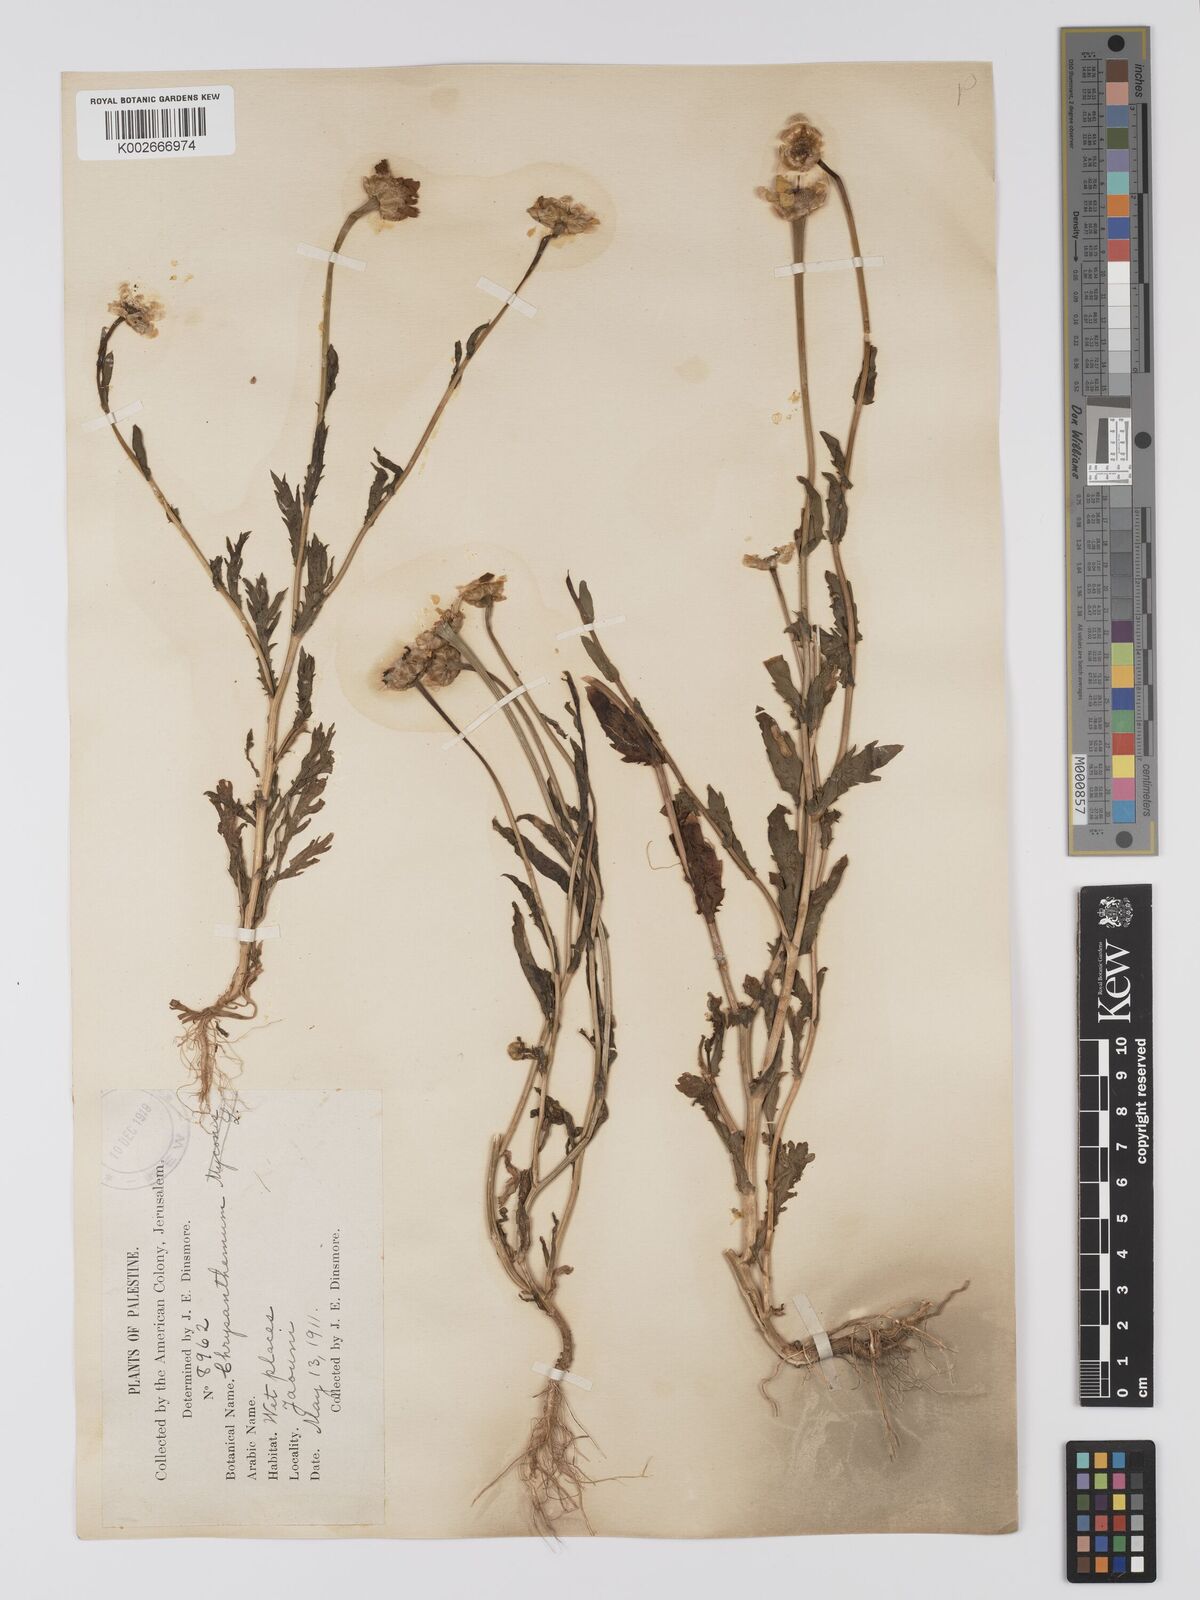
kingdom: Plantae
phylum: Tracheophyta
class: Magnoliopsida
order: Asterales
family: Asteraceae
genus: Glebionis
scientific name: Glebionis segetum
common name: Corndaisy
